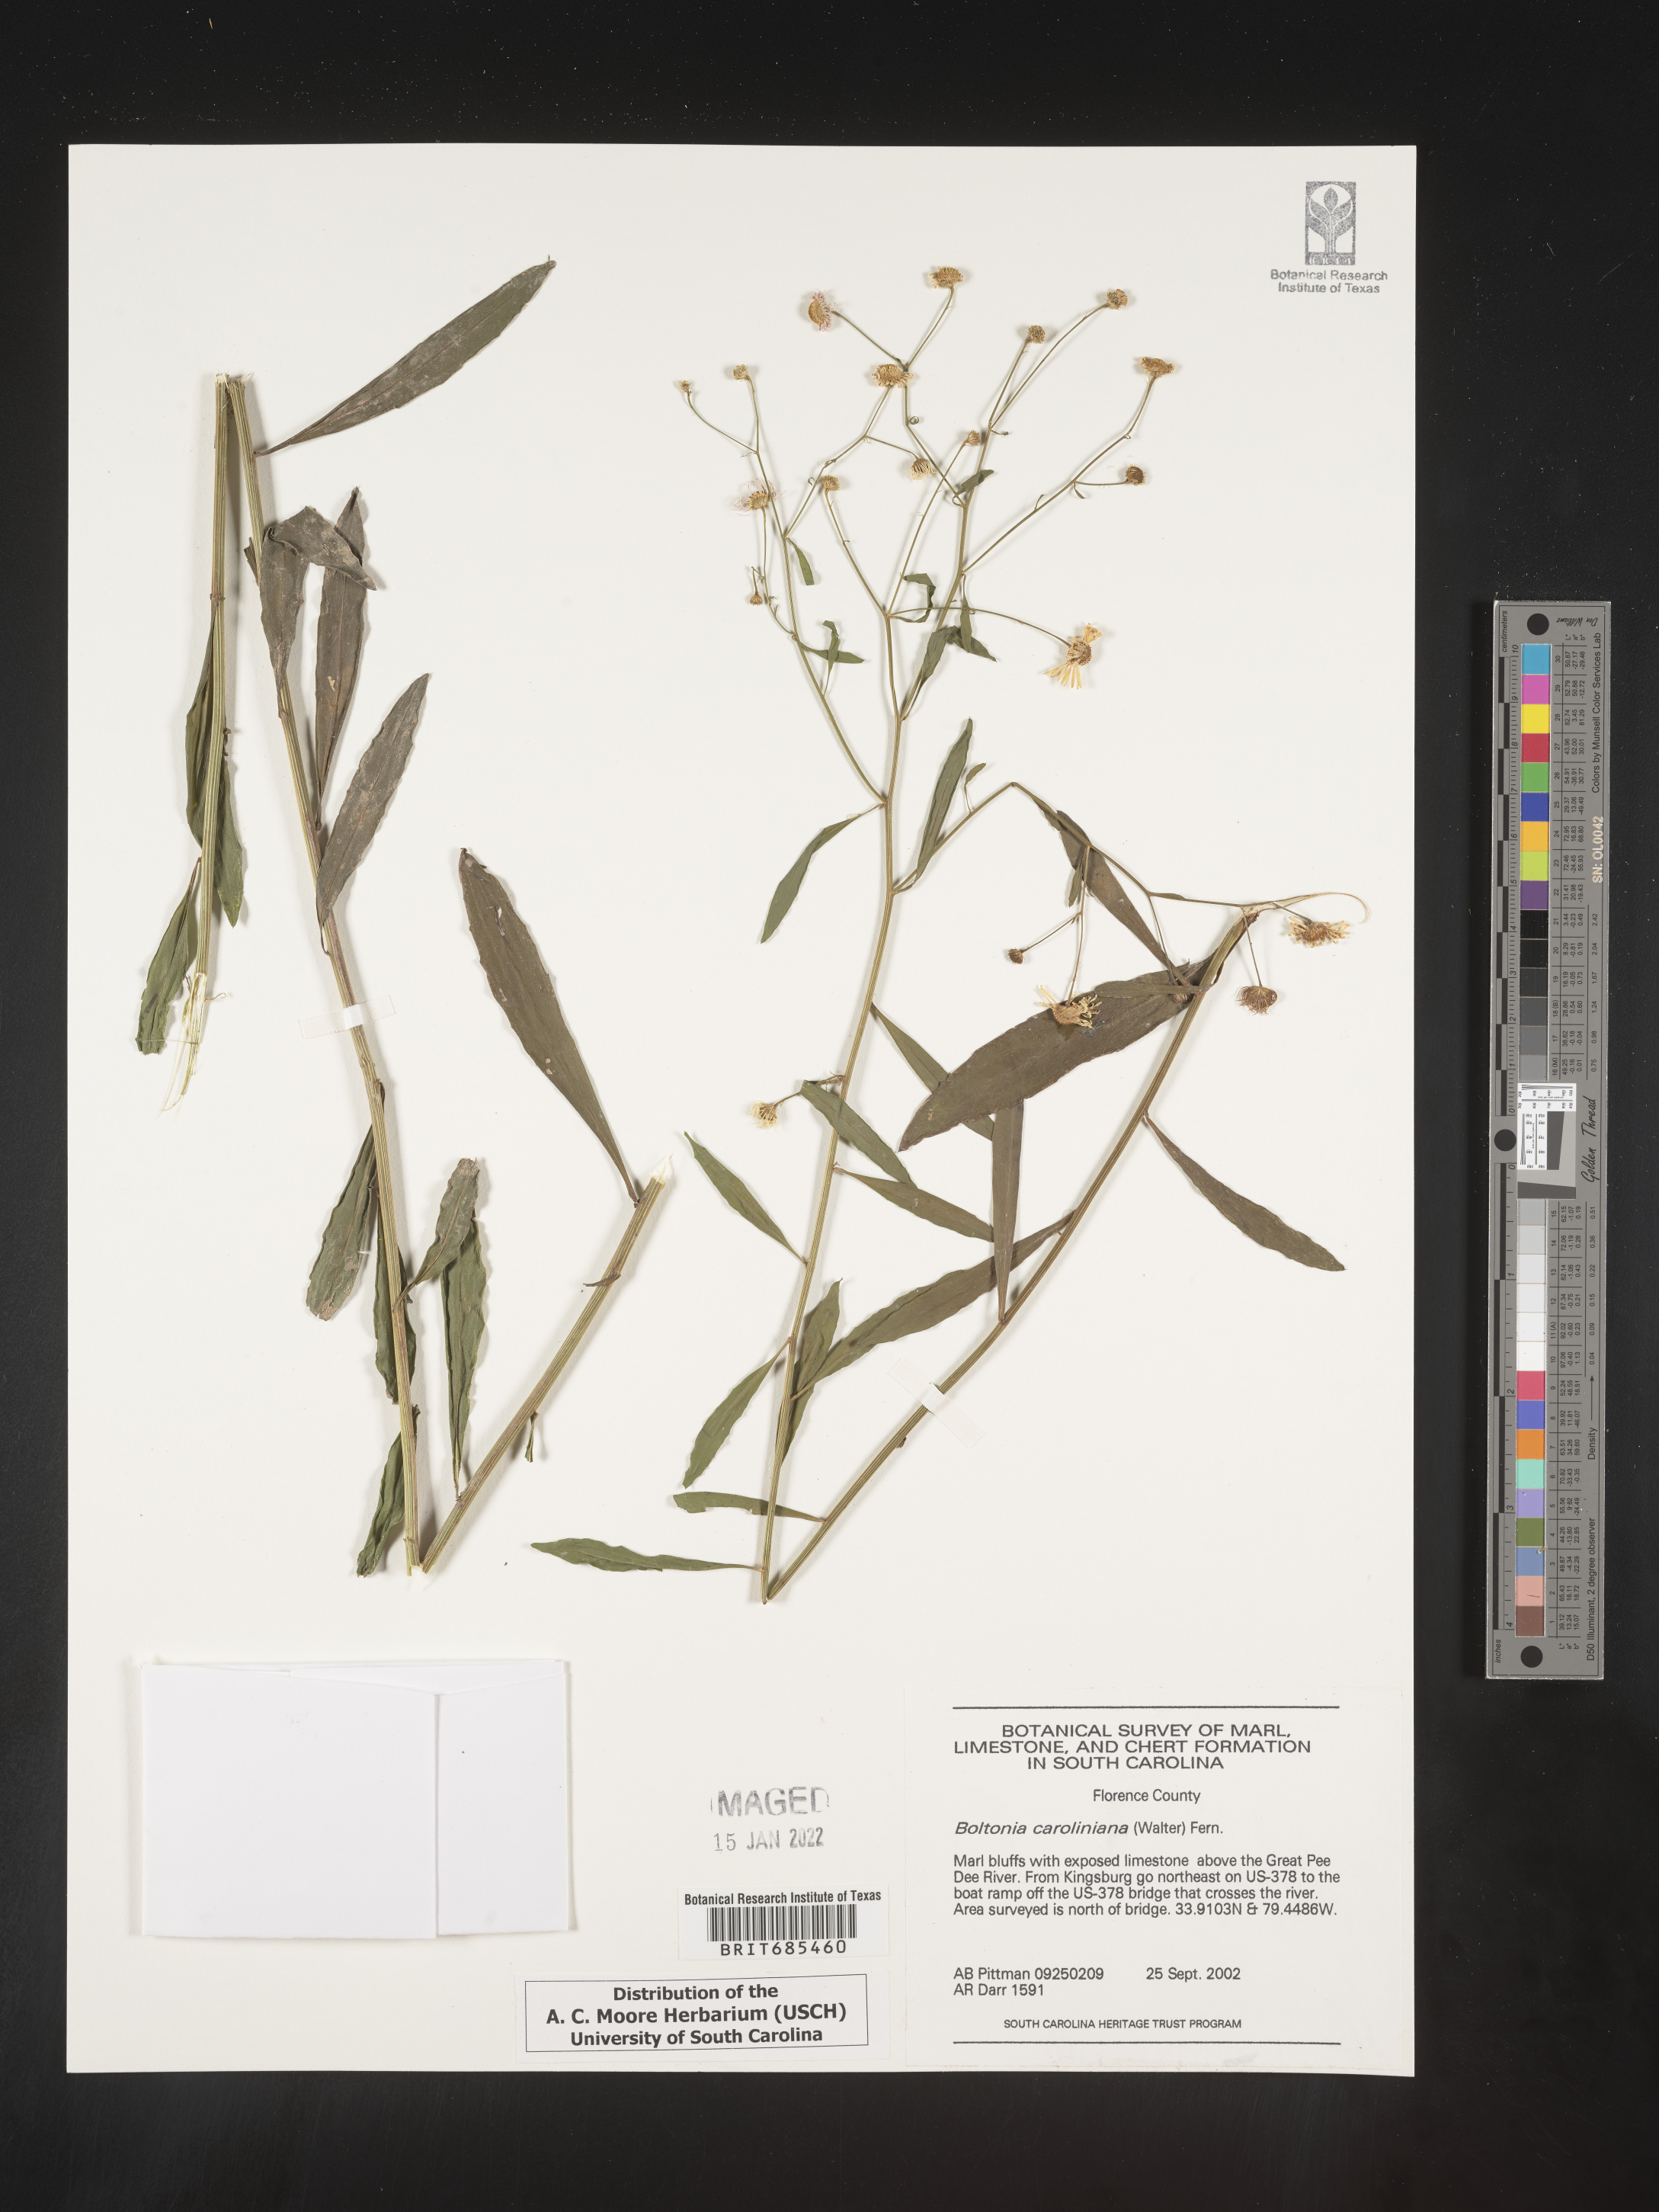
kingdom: Plantae
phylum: Tracheophyta
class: Magnoliopsida
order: Asterales
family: Asteraceae
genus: Boltonia
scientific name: Boltonia caroliniana
